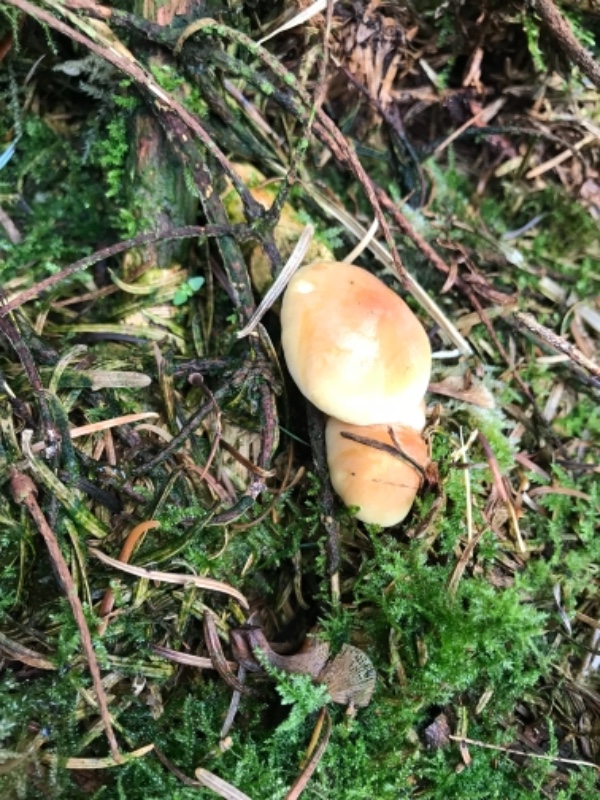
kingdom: Fungi
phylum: Basidiomycota
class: Agaricomycetes
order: Agaricales
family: Strophariaceae
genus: Hypholoma
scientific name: Hypholoma fasciculare
